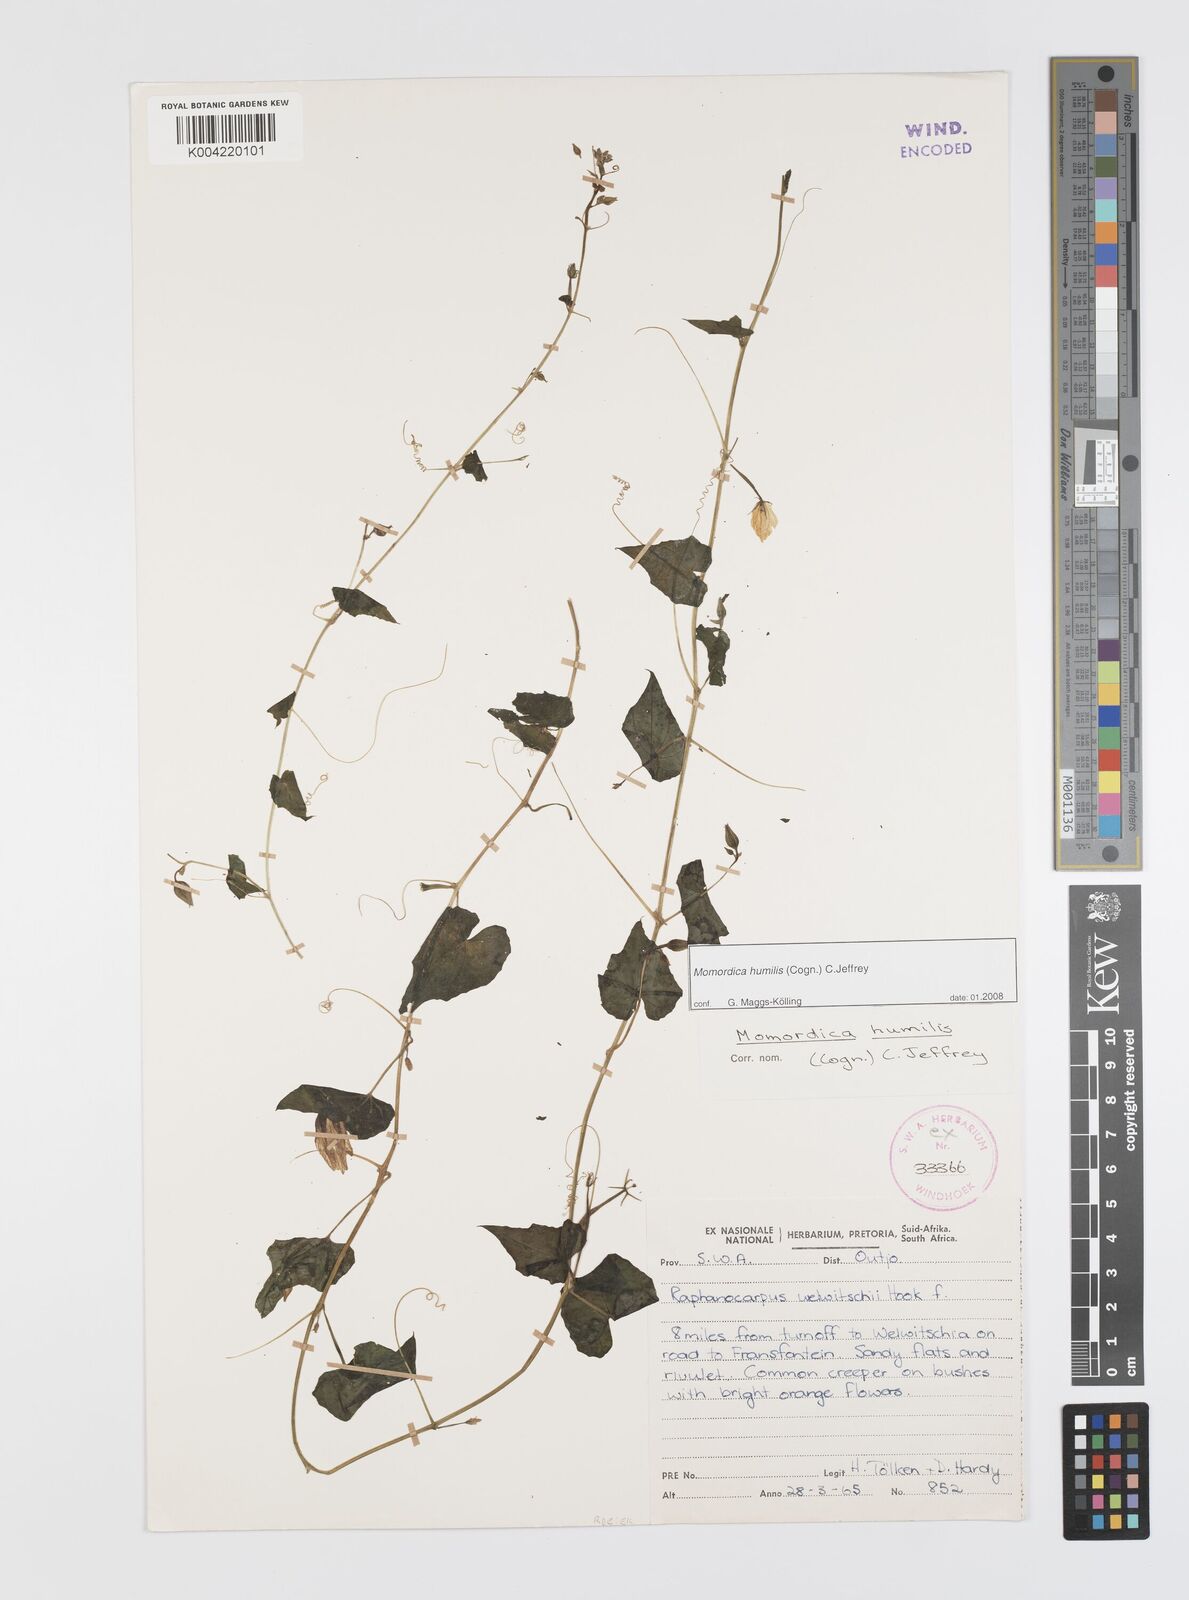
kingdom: Plantae
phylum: Tracheophyta
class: Magnoliopsida
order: Cucurbitales
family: Cucurbitaceae
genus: Momordica
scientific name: Momordica
